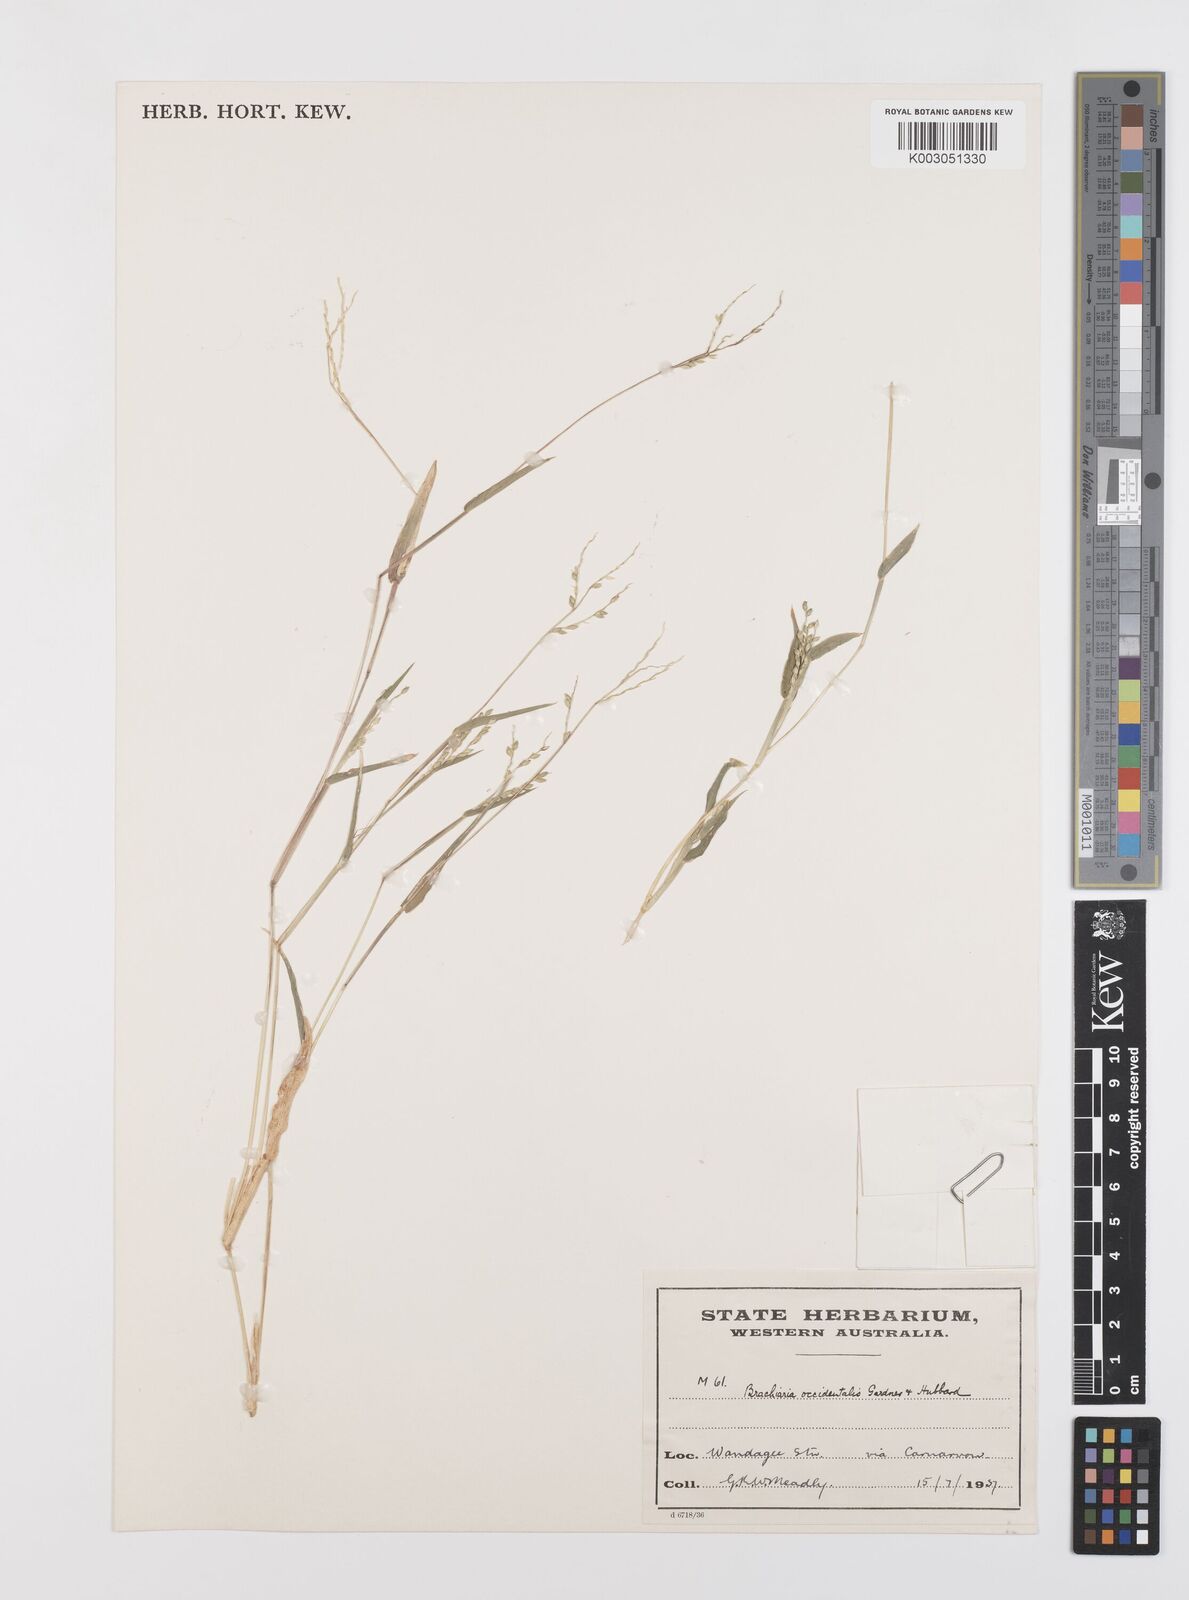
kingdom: Plantae
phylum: Tracheophyta
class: Liliopsida
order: Poales
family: Poaceae
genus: Urochloa
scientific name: Urochloa occidentalis
